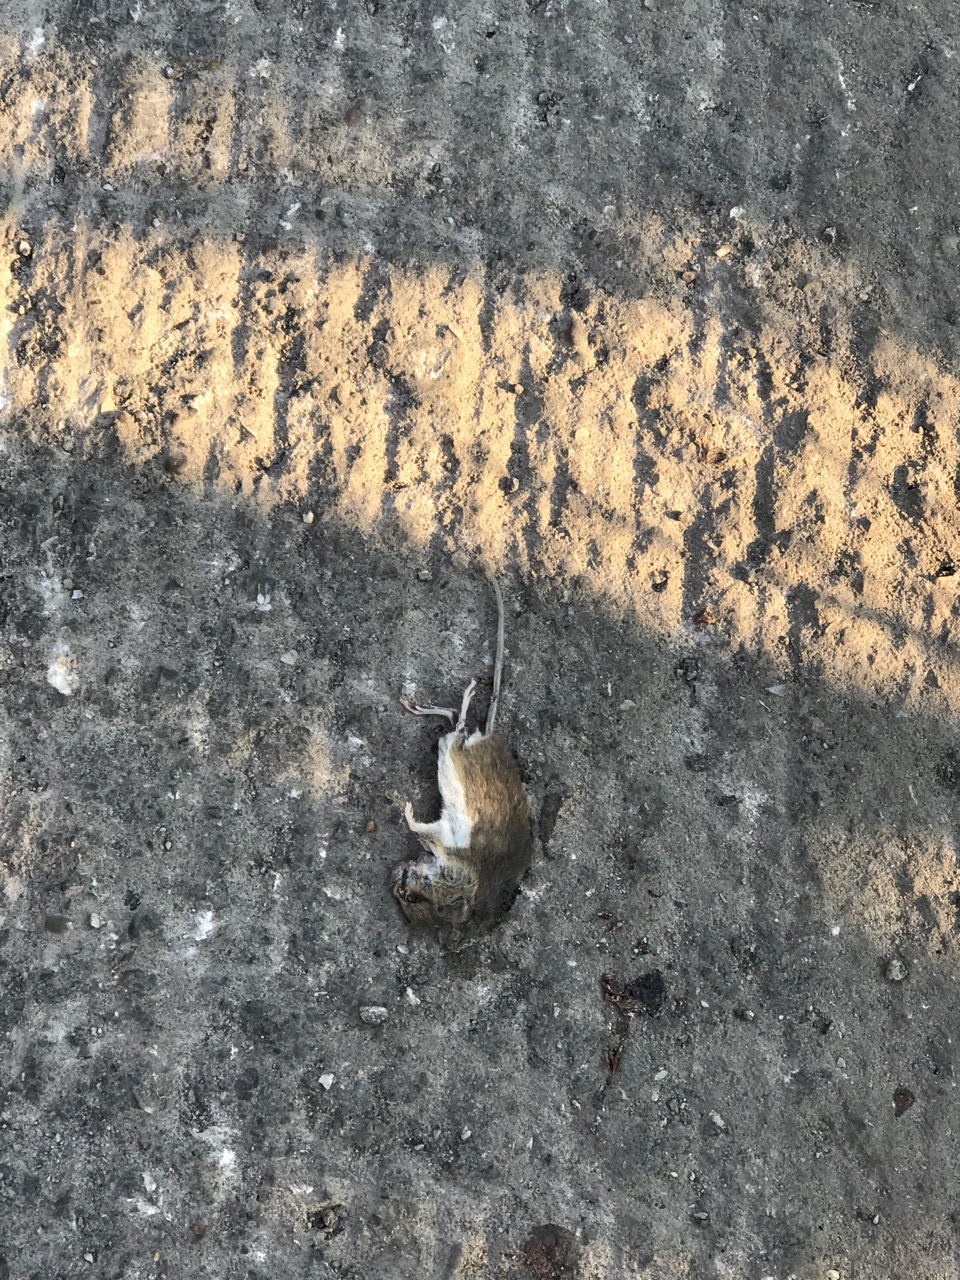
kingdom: Animalia
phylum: Chordata
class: Mammalia
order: Rodentia
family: Muridae
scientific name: Muridae
